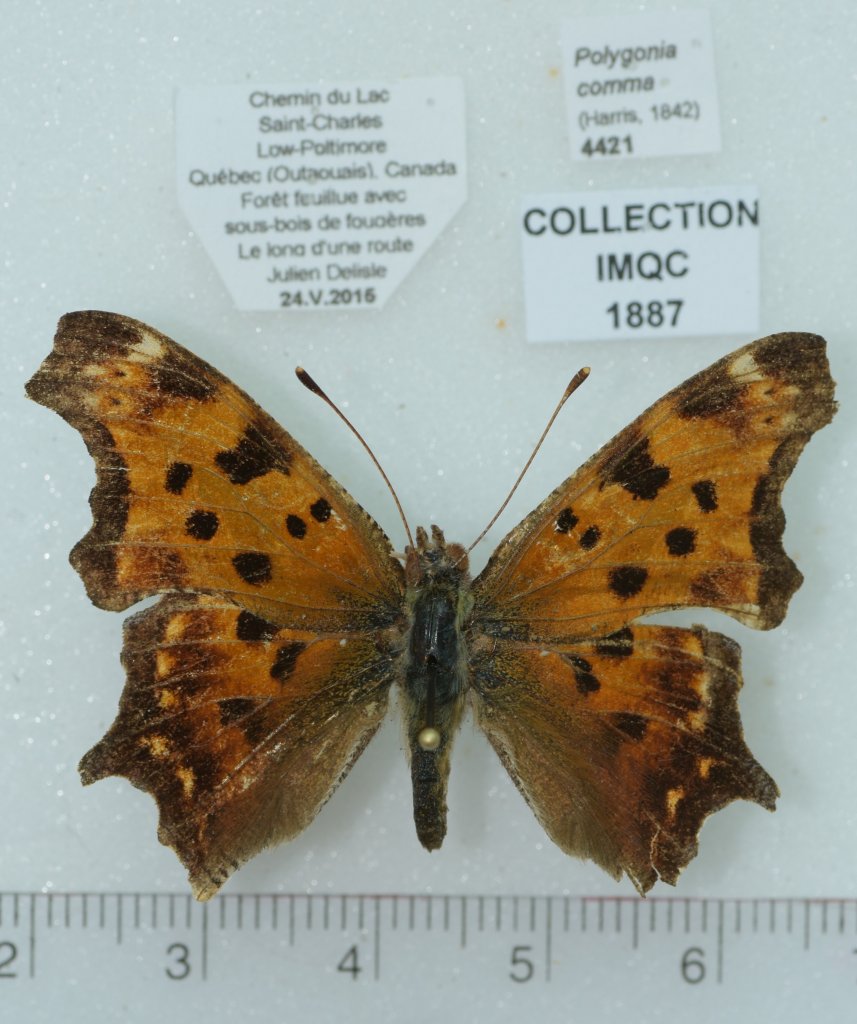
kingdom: Animalia
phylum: Arthropoda
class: Insecta
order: Lepidoptera
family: Nymphalidae
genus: Polygonia
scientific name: Polygonia comma
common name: Eastern Comma
